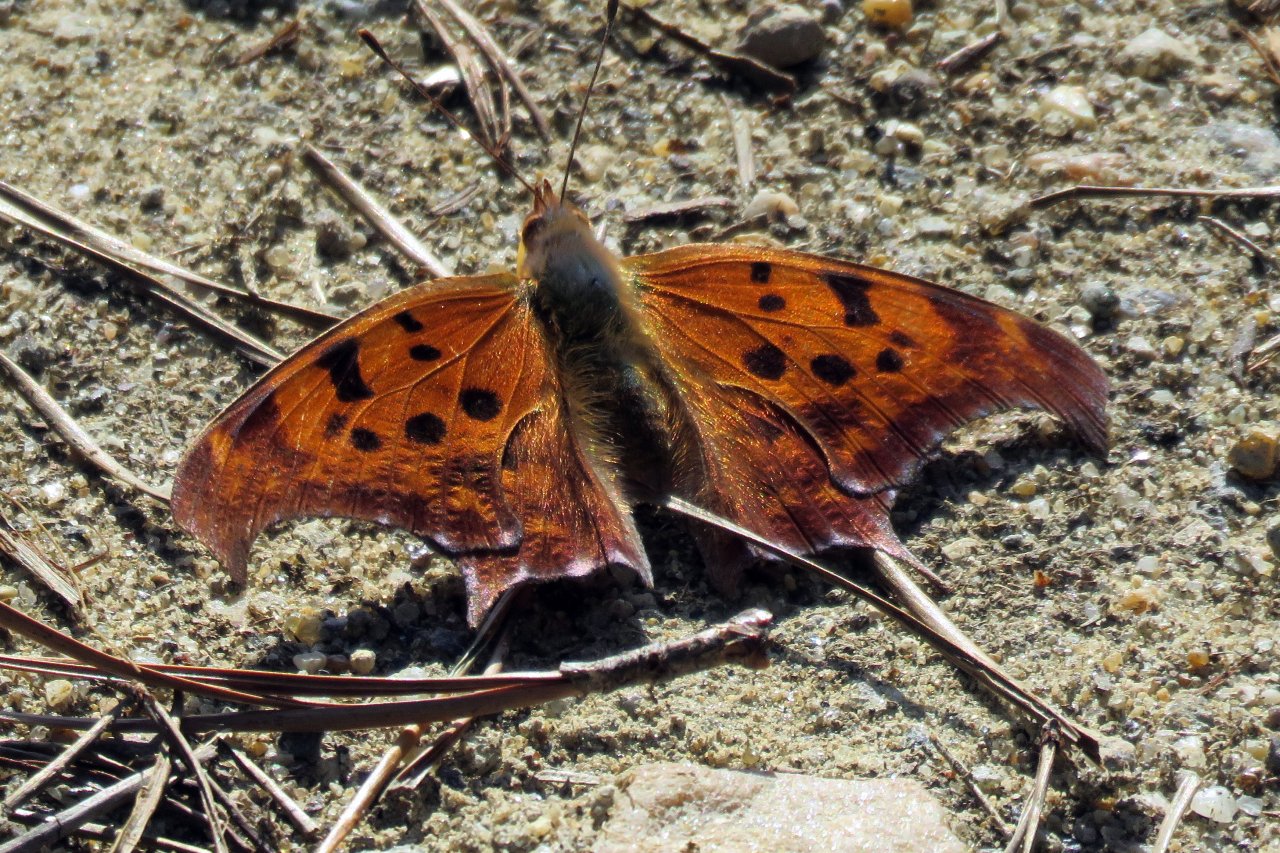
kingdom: Animalia
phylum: Arthropoda
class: Insecta
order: Lepidoptera
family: Nymphalidae
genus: Polygonia
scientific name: Polygonia interrogationis
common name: Question Mark
